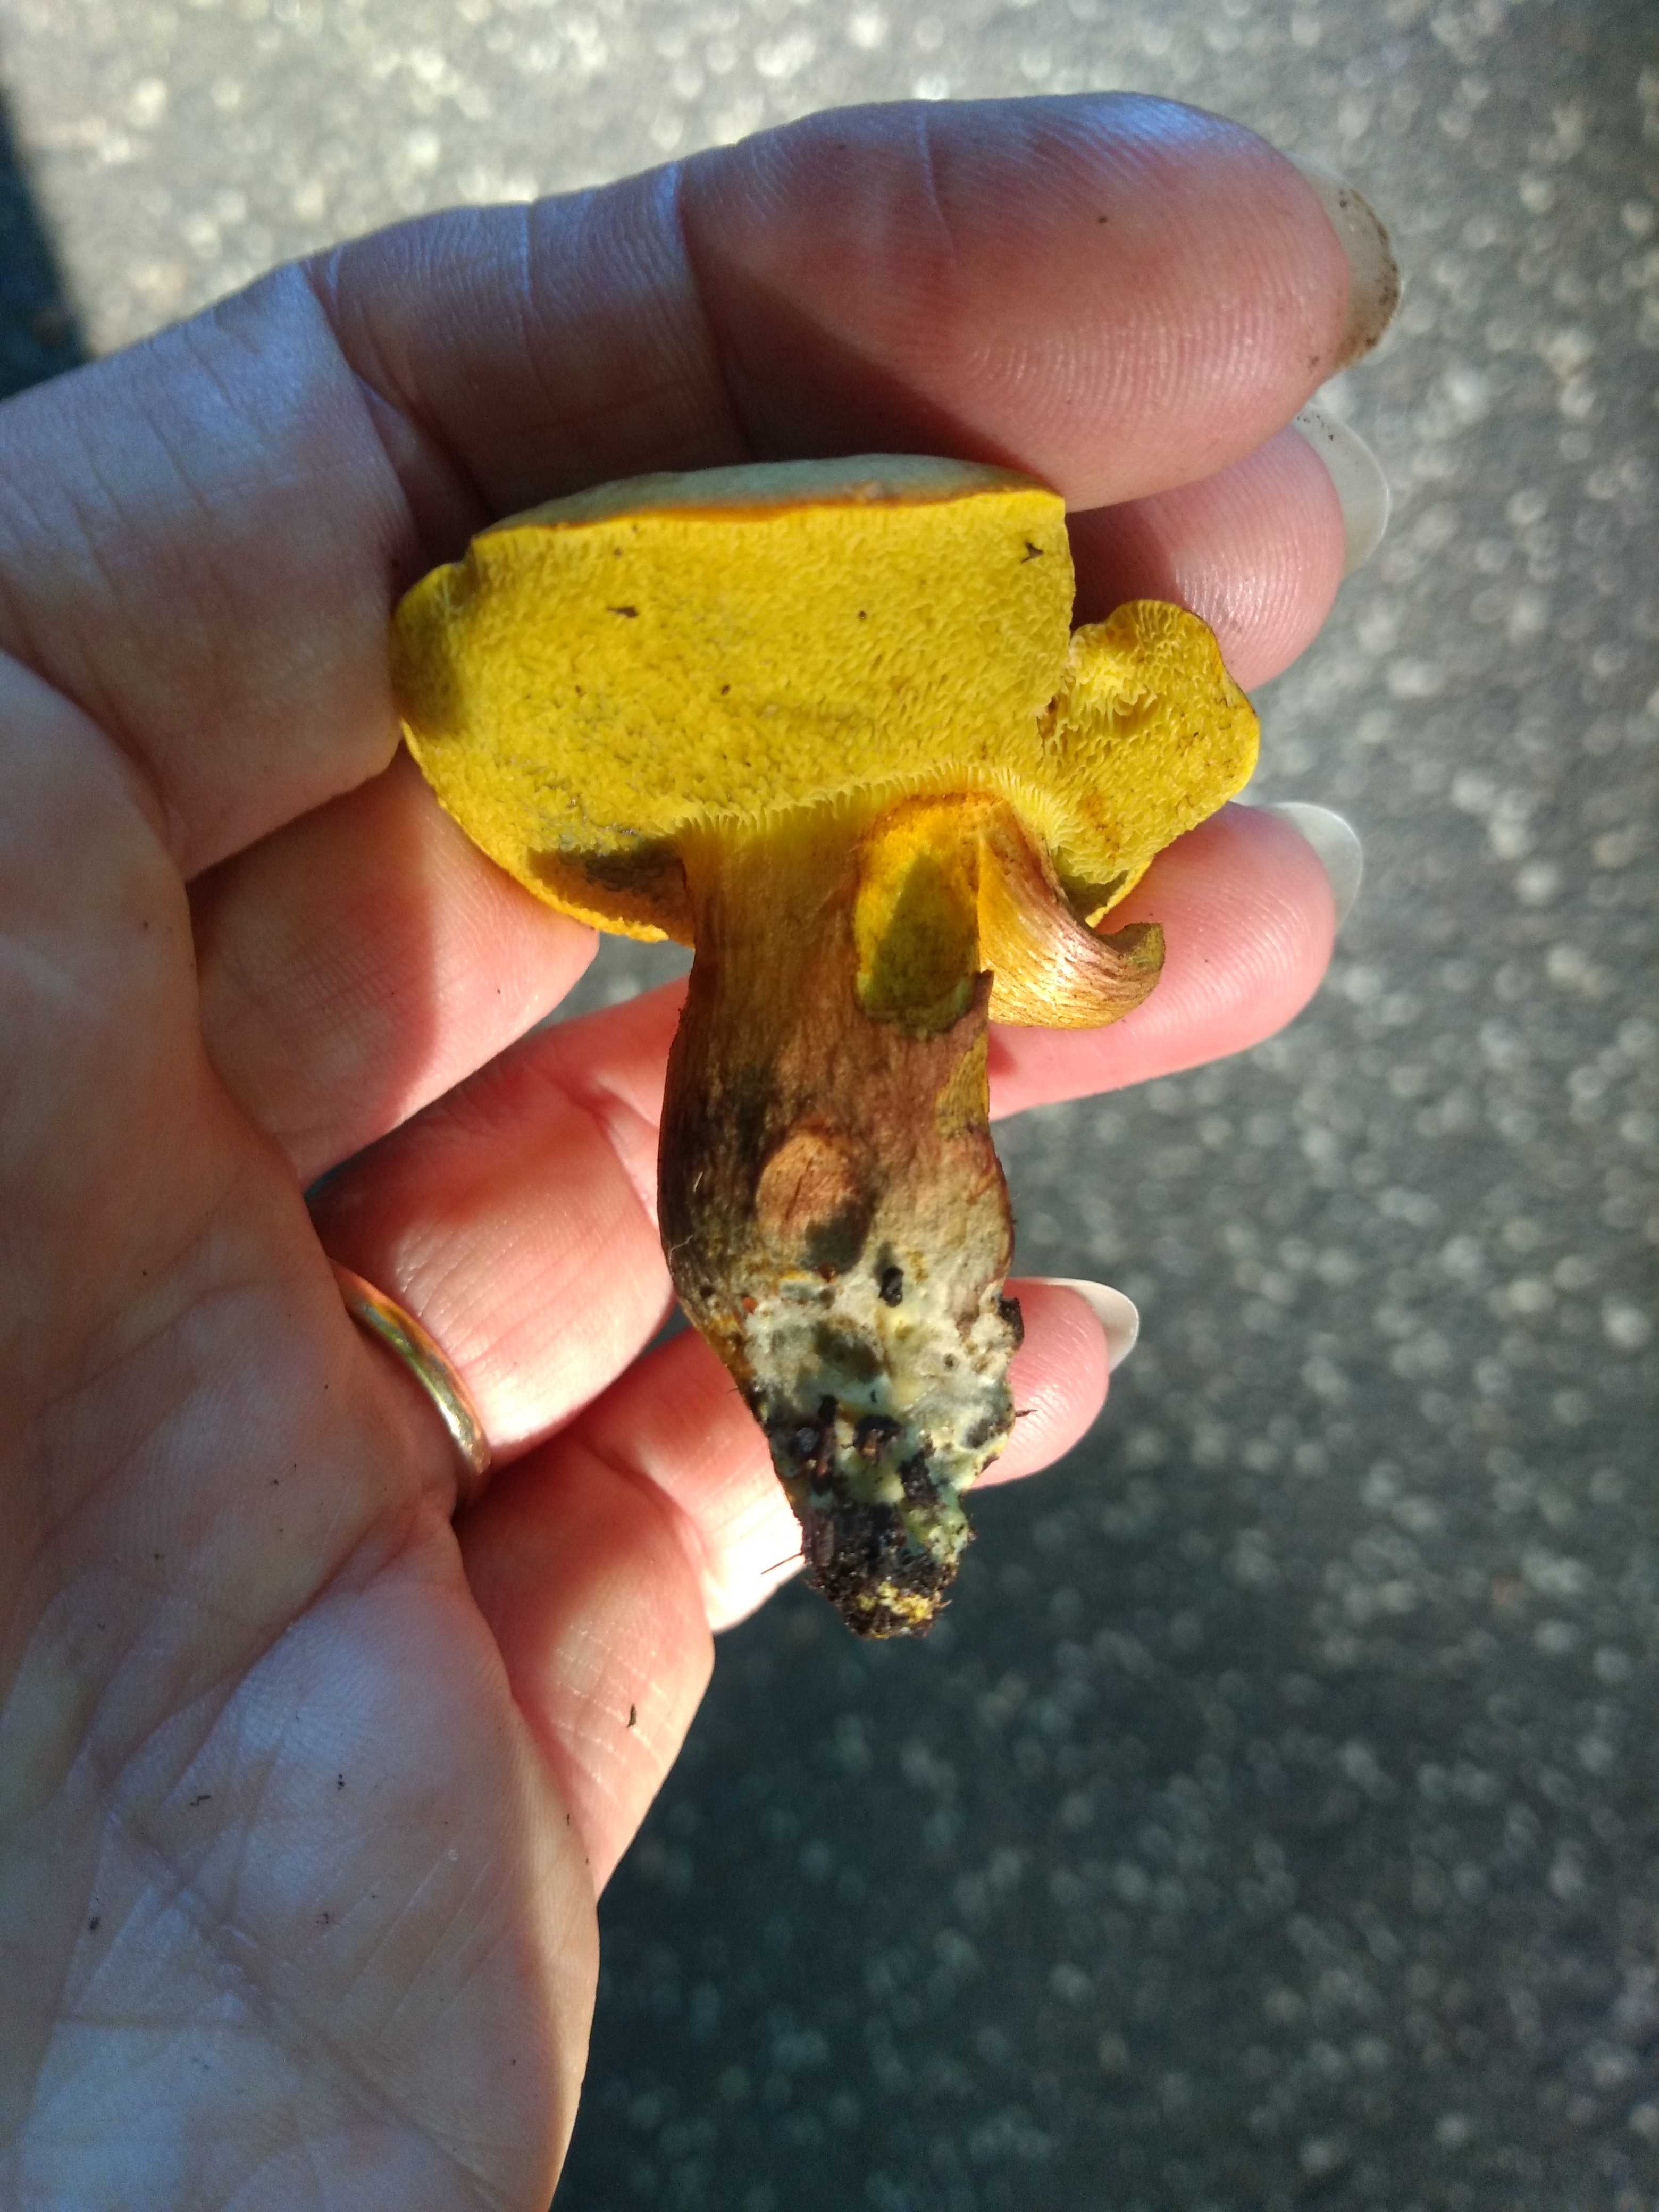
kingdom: Fungi
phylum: Basidiomycota
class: Agaricomycetes
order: Boletales
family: Boletaceae
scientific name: Boletaceae
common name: rørhatfamilien
